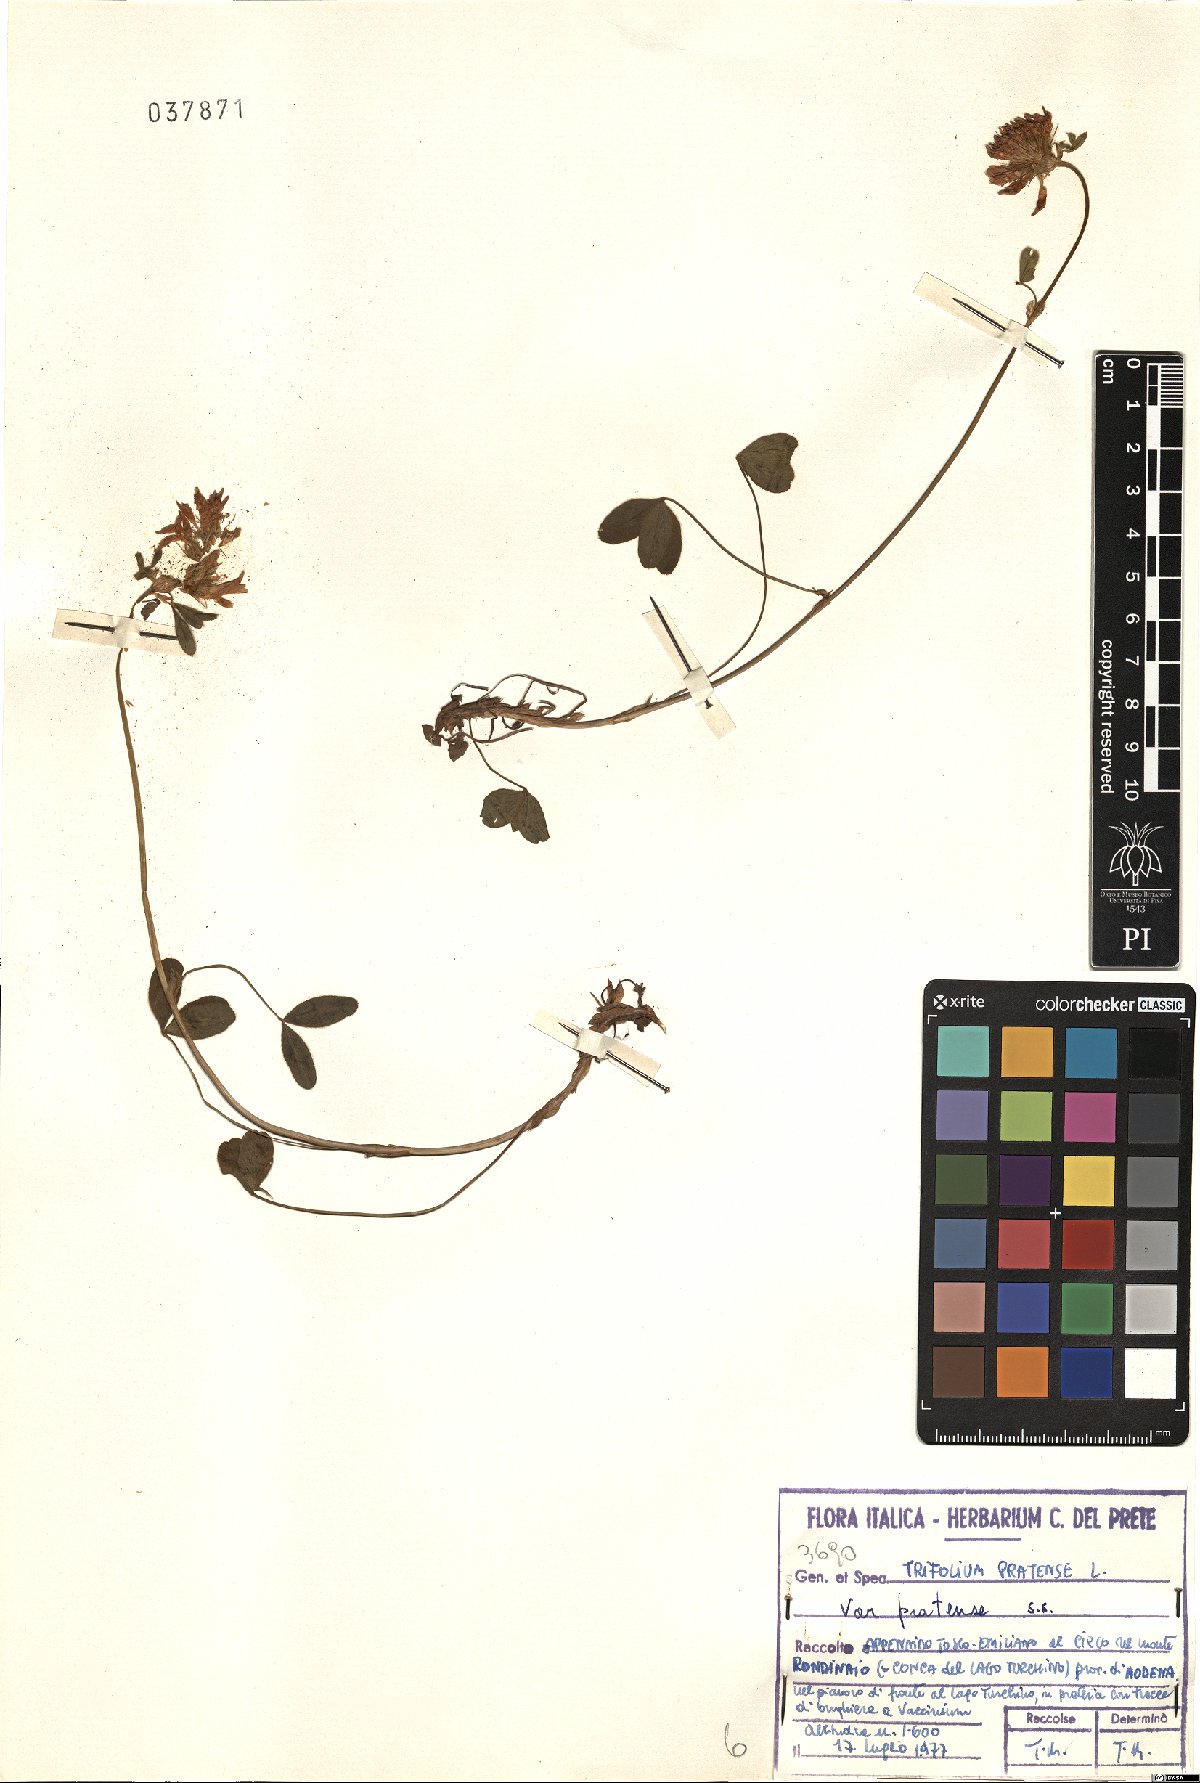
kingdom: Plantae
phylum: Tracheophyta
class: Magnoliopsida
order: Fabales
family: Fabaceae
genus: Trifolium
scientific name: Trifolium pratense
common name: Red clover
